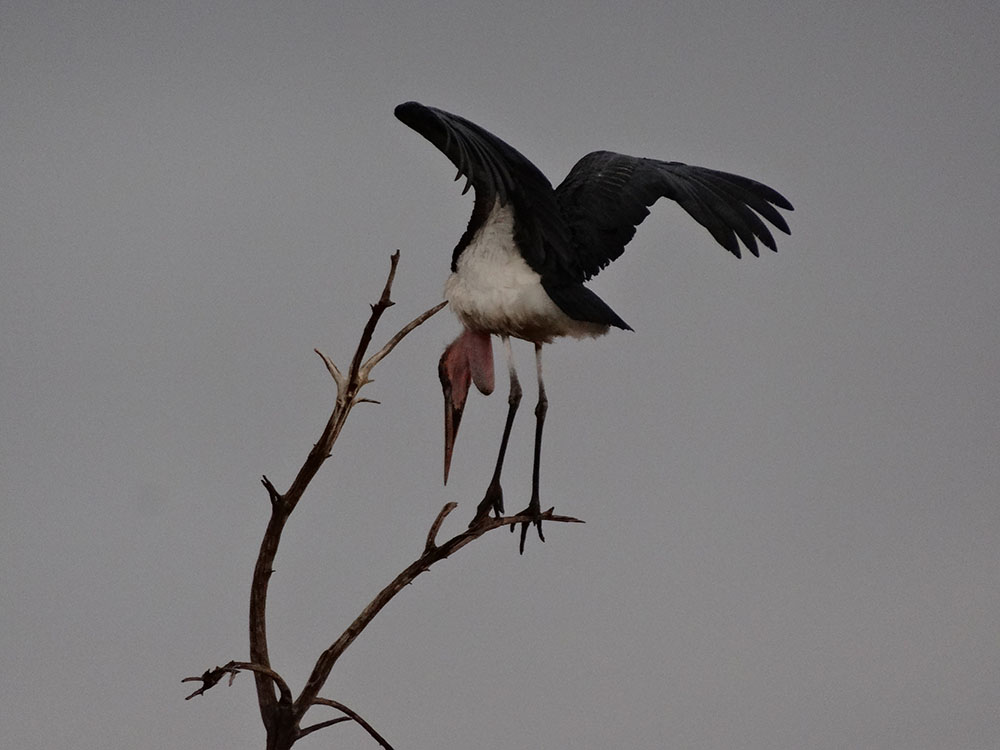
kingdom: Animalia
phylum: Chordata
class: Aves
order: Ciconiiformes
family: Ciconiidae
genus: Leptoptilos
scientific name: Leptoptilos crumenifer
